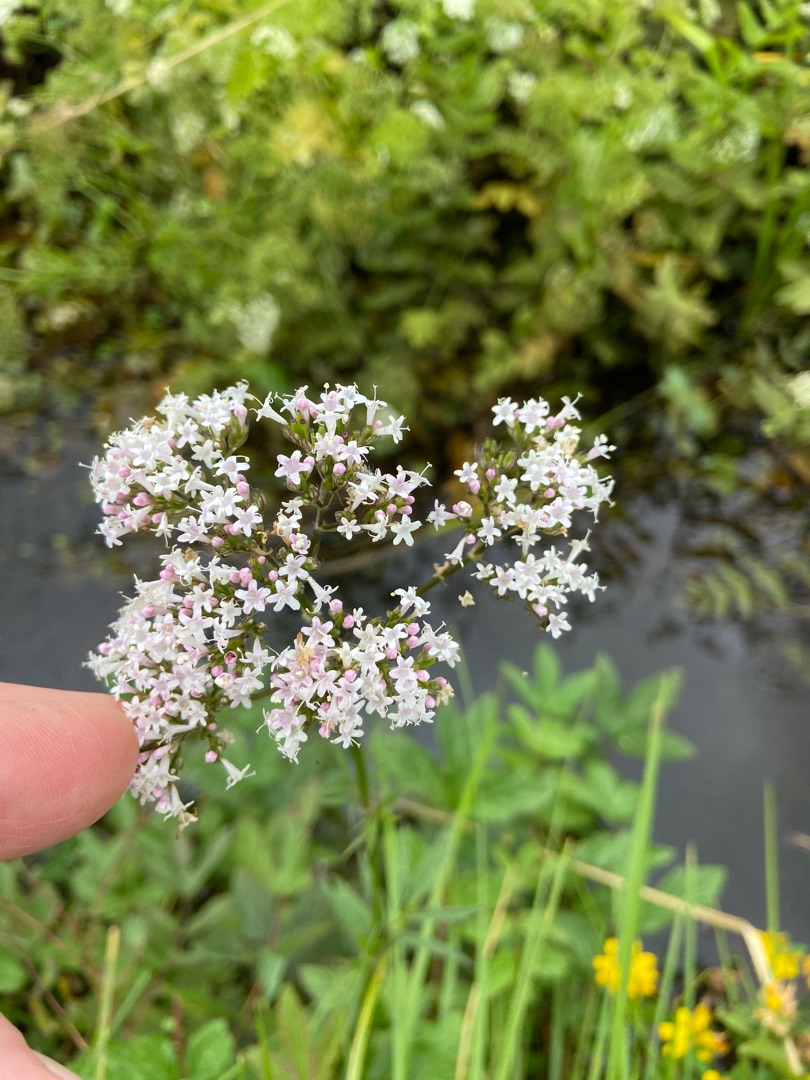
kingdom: Plantae
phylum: Tracheophyta
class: Magnoliopsida
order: Dipsacales
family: Caprifoliaceae
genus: Valeriana
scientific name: Valeriana sambucifolia
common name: Hyldebladet baldrian
